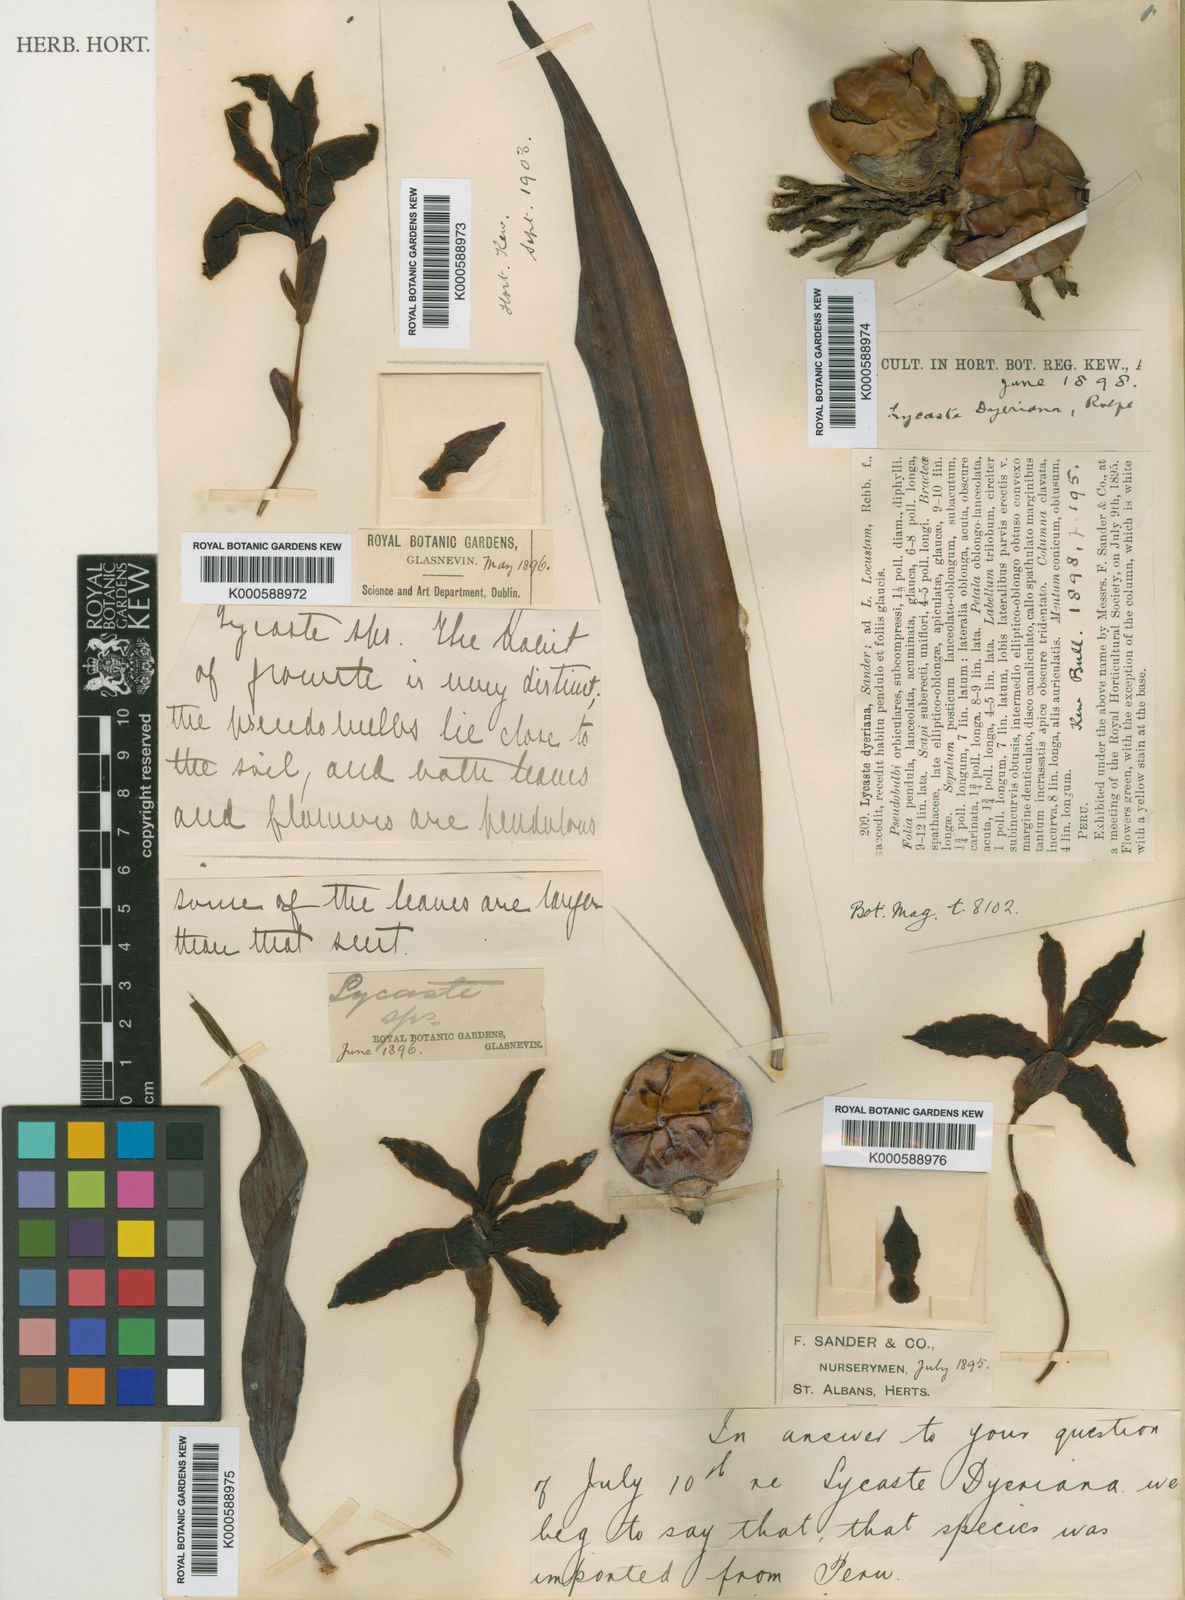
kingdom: Plantae
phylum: Tracheophyta
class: Liliopsida
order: Asparagales
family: Orchidaceae
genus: Lycaste
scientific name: Lycaste
